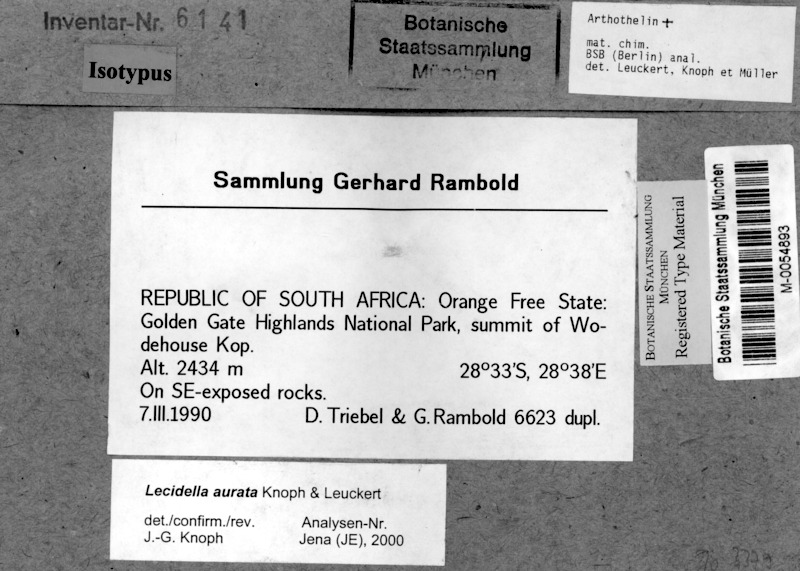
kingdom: Fungi
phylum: Ascomycota
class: Lecanoromycetes
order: Lecanorales
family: Lecanoraceae
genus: Lecidella
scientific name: Lecidella aurata
